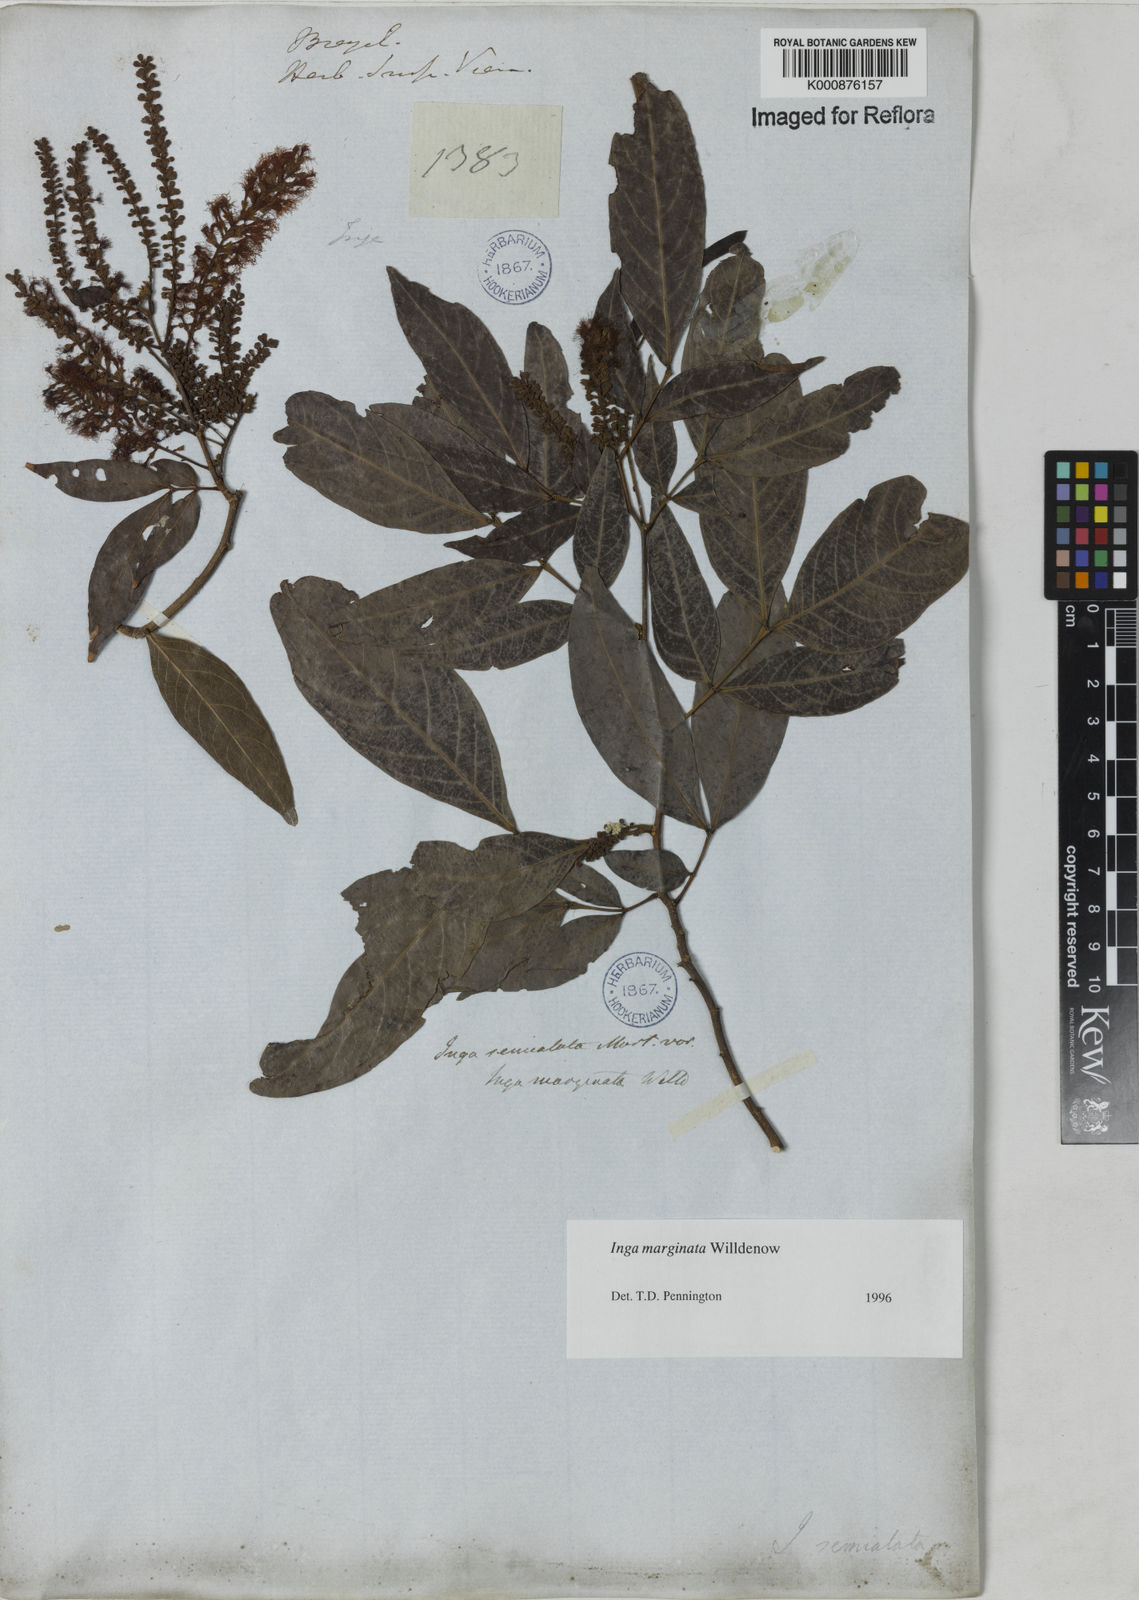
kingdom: Plantae
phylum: Tracheophyta
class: Magnoliopsida
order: Fabales
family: Fabaceae
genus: Inga
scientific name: Inga marginata
